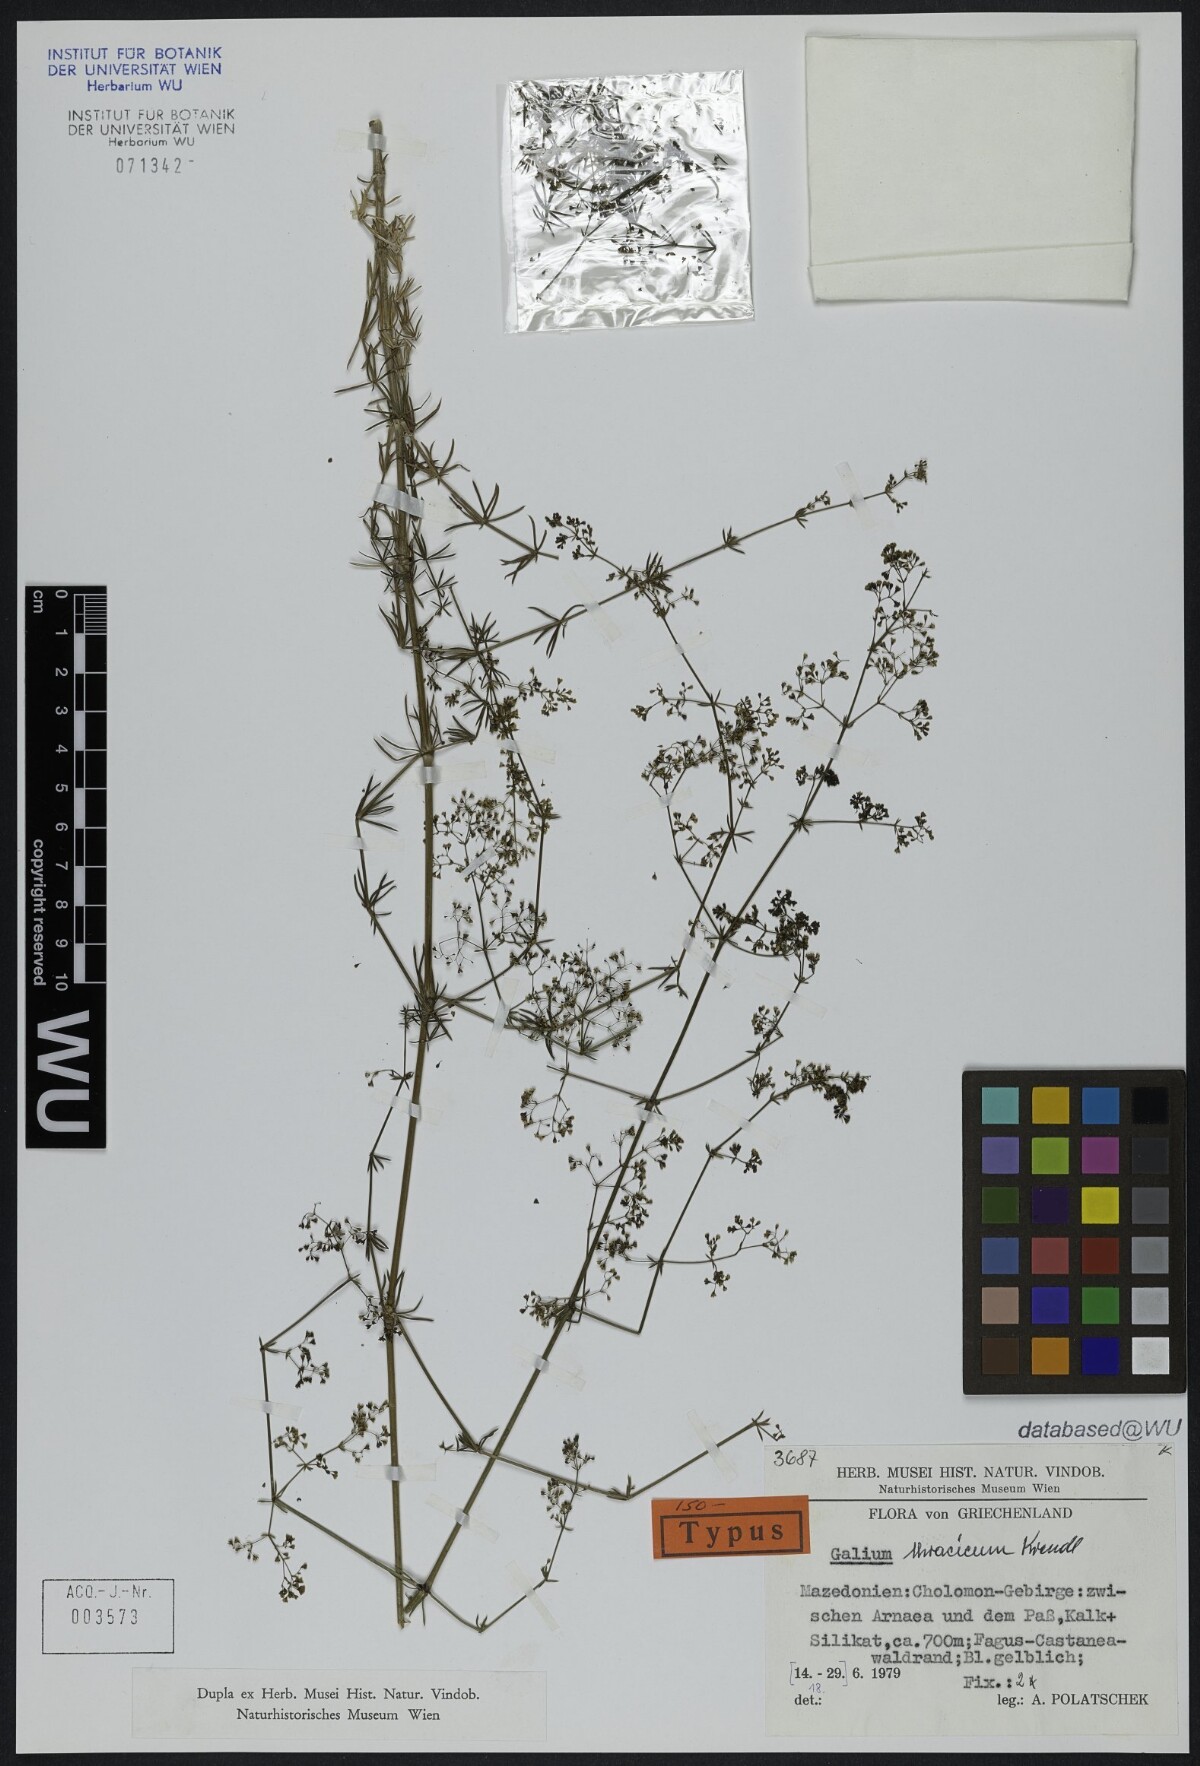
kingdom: Plantae
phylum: Tracheophyta
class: Magnoliopsida
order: Gentianales
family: Rubiaceae
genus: Galium
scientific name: Galium thracicum
